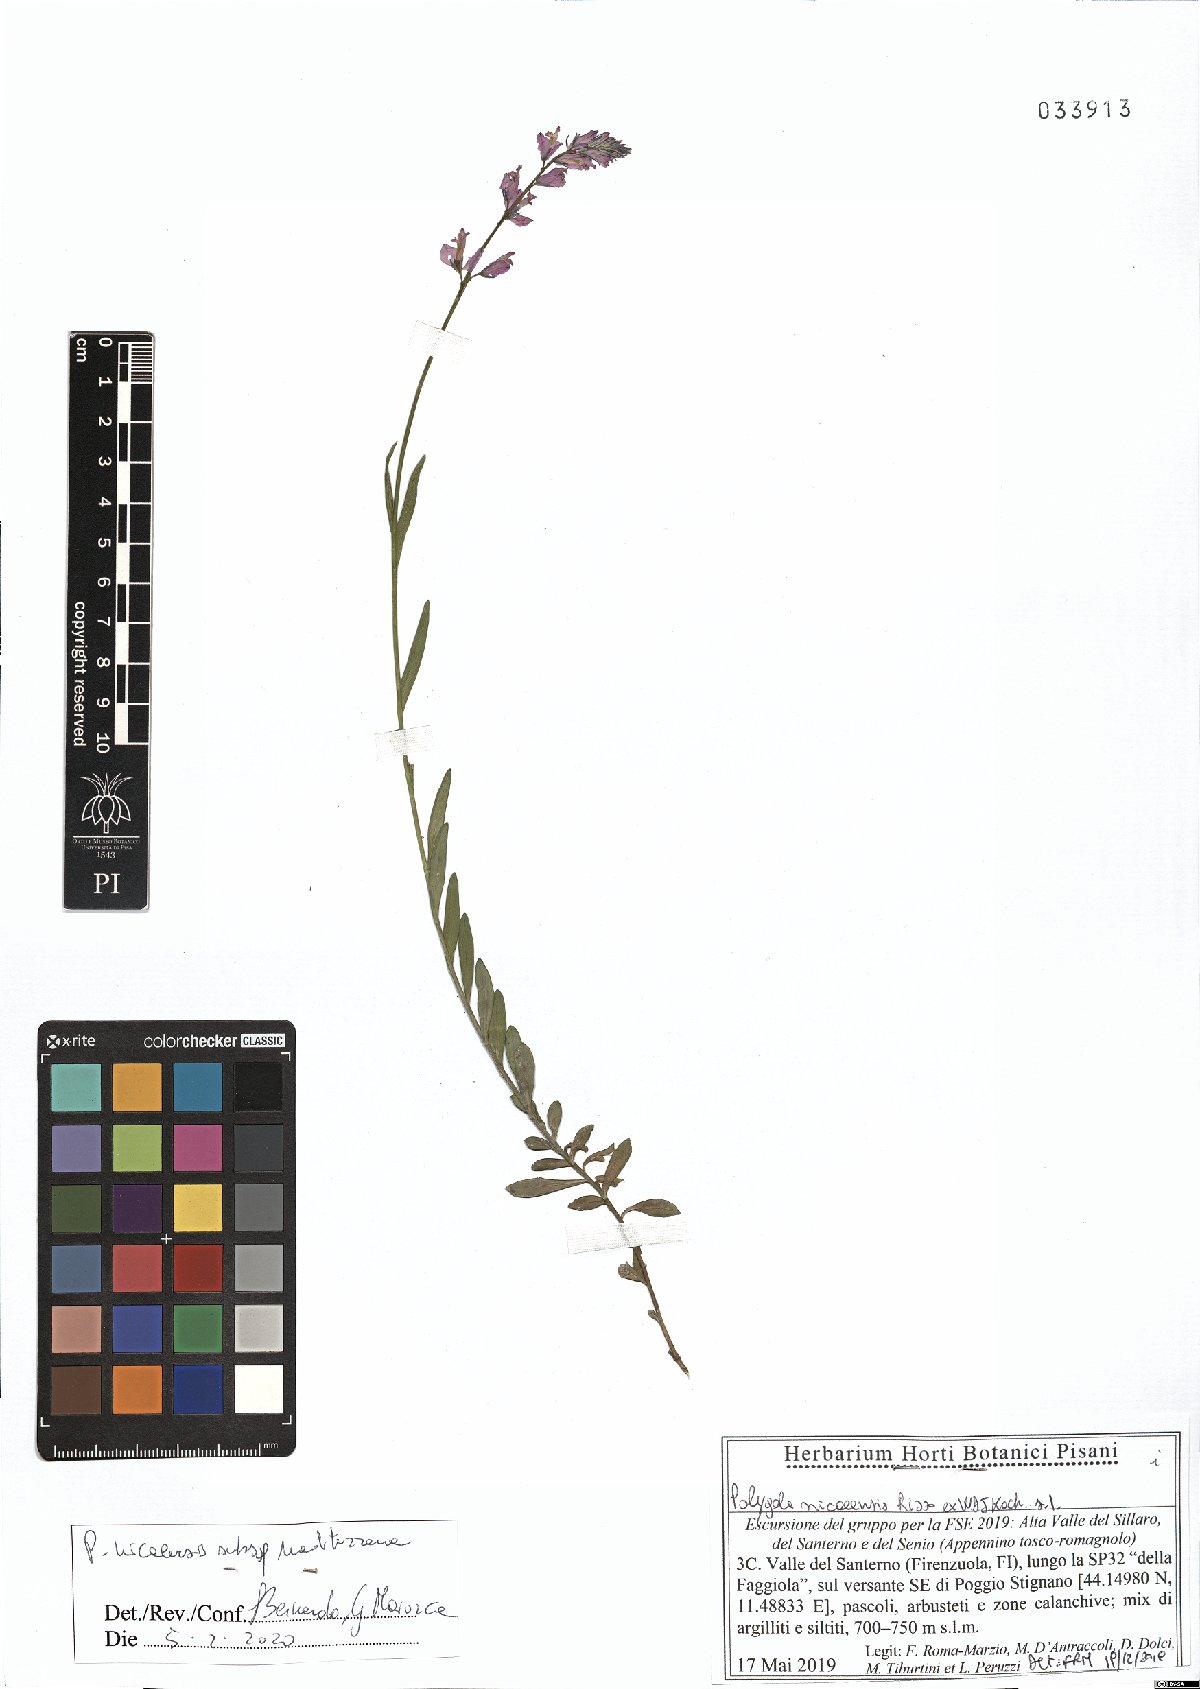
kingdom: Plantae
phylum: Tracheophyta
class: Magnoliopsida
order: Fabales
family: Polygalaceae
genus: Polygala
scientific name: Polygala nicaeensis
